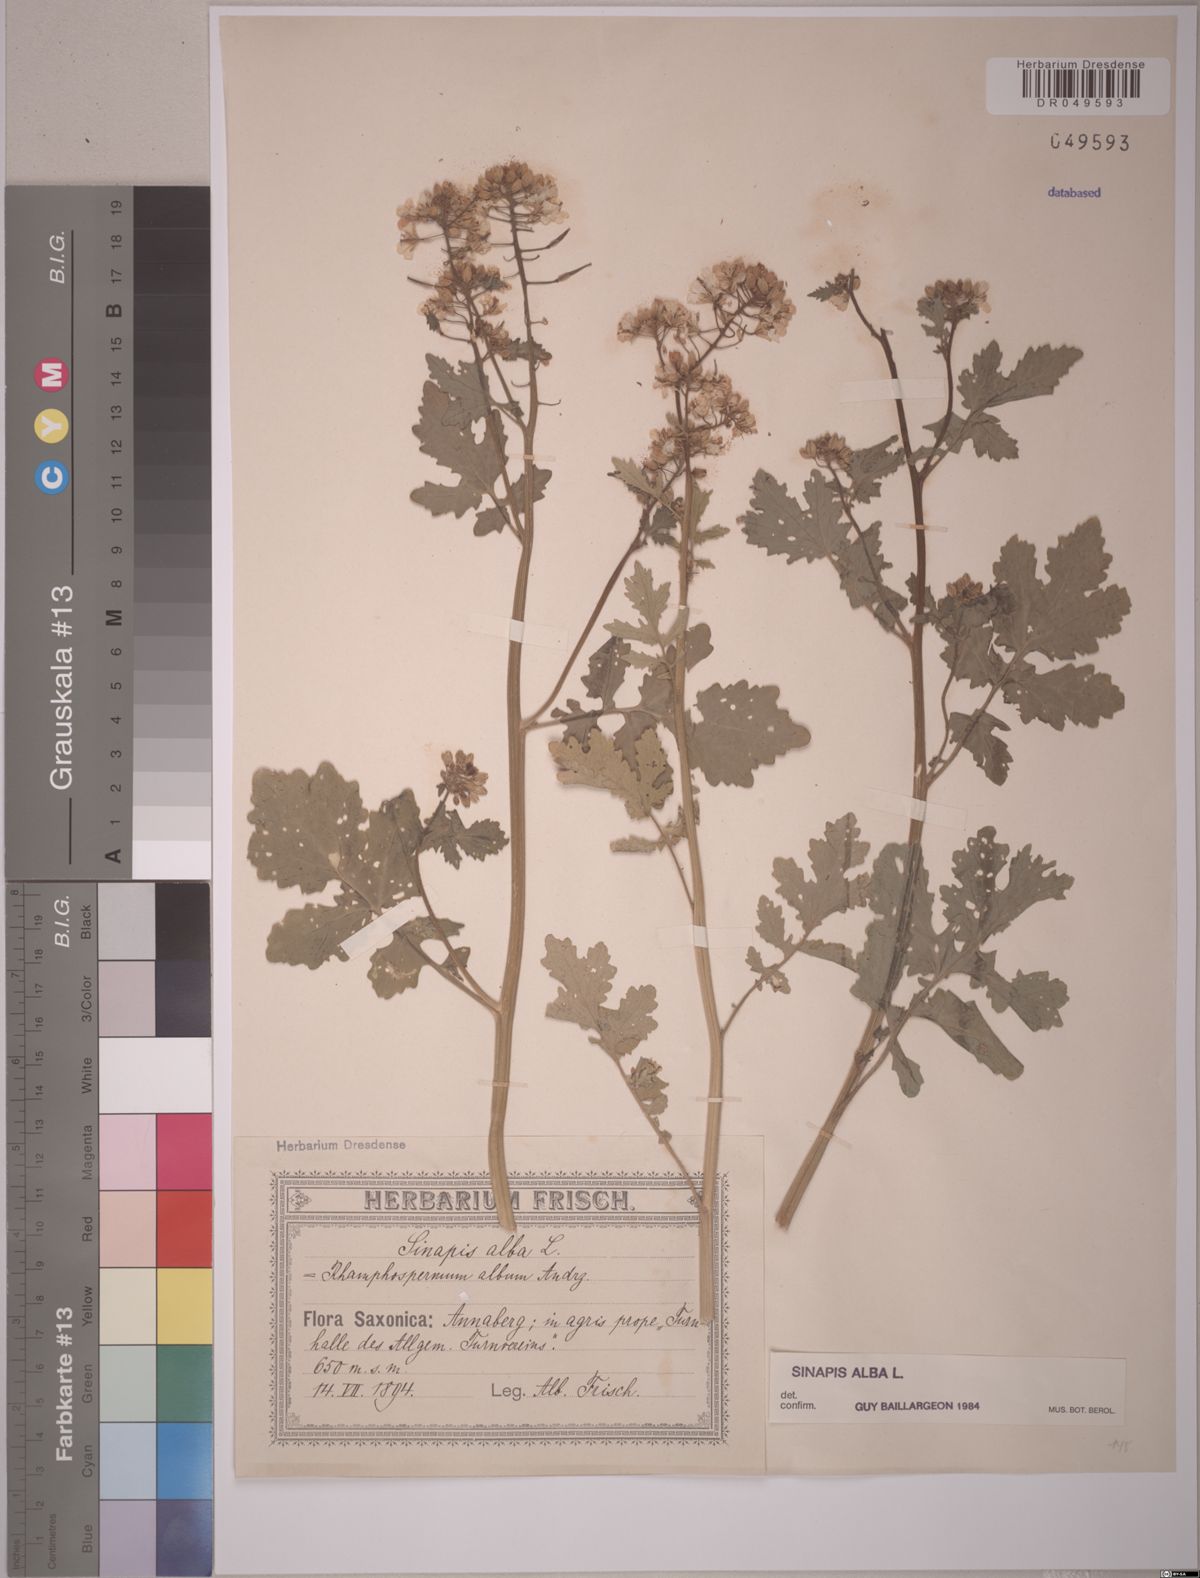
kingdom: Plantae
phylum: Tracheophyta
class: Magnoliopsida
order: Brassicales
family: Brassicaceae
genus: Sinapis
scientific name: Sinapis alba
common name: White mustard
